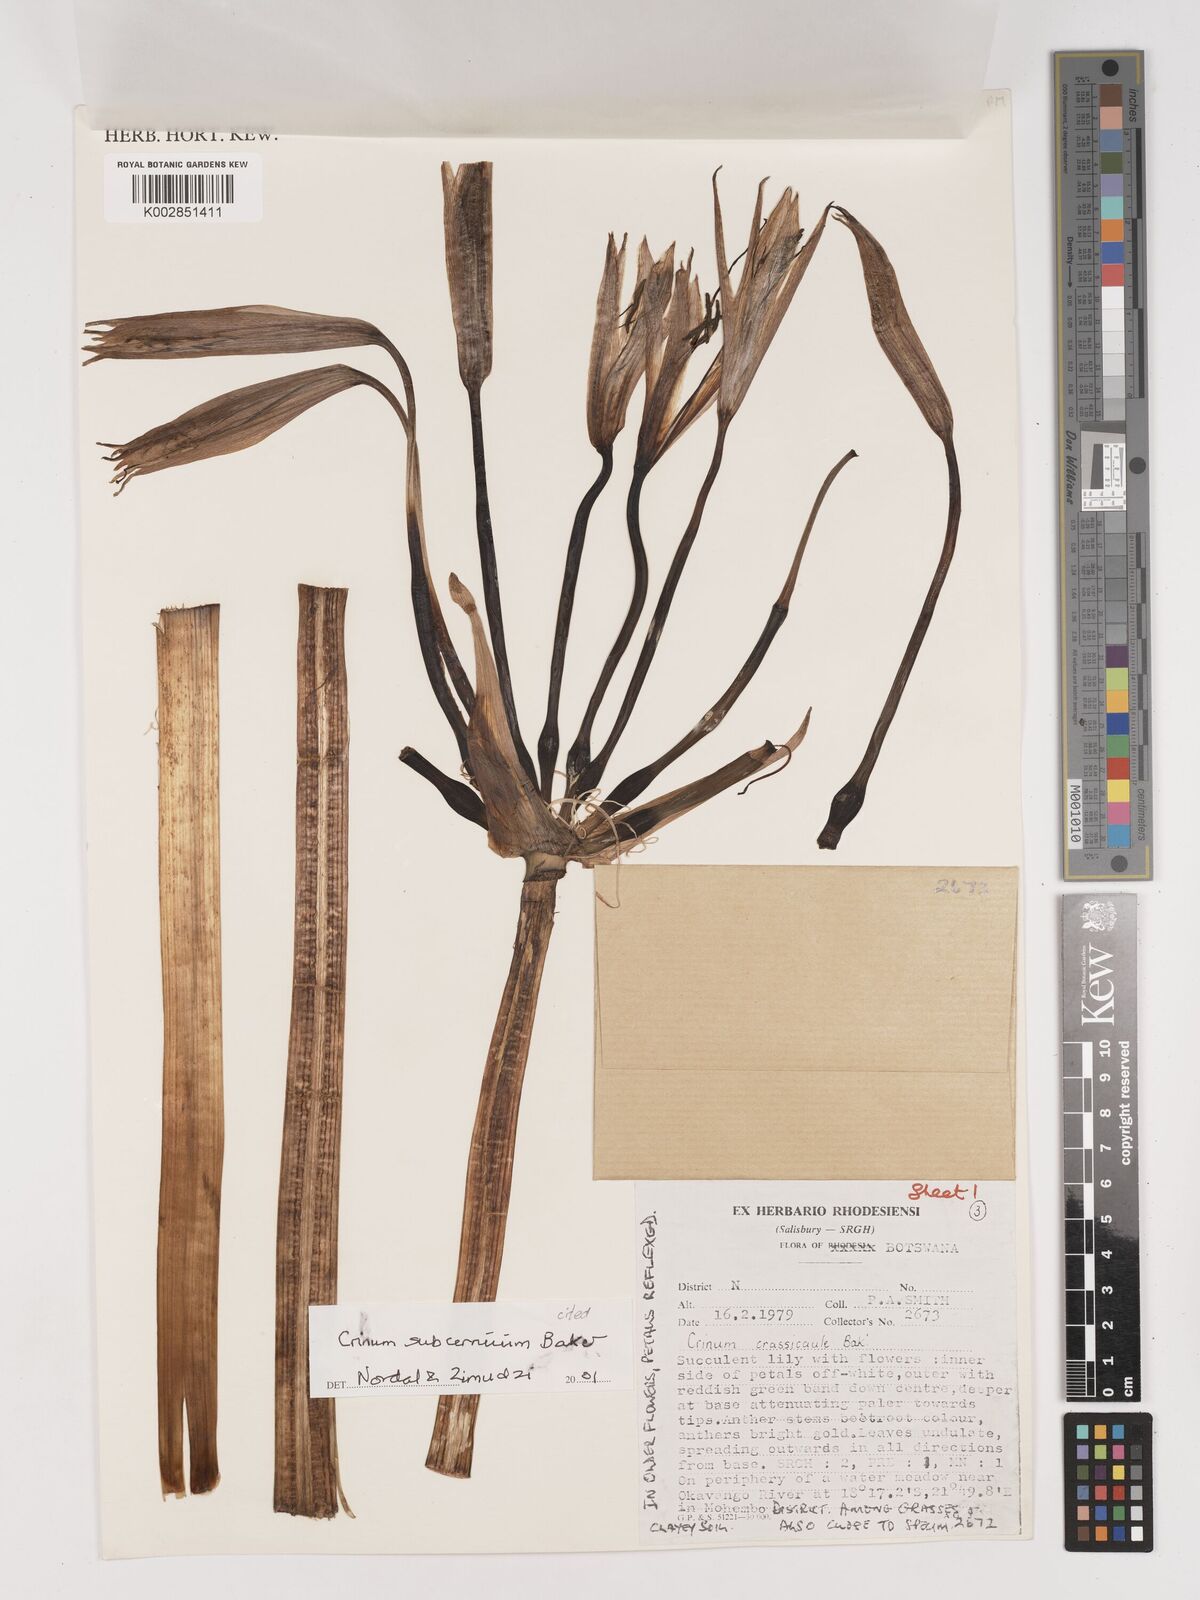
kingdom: Plantae
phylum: Tracheophyta
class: Liliopsida
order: Asparagales
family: Amaryllidaceae
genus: Crinum
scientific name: Crinum subcernuum
